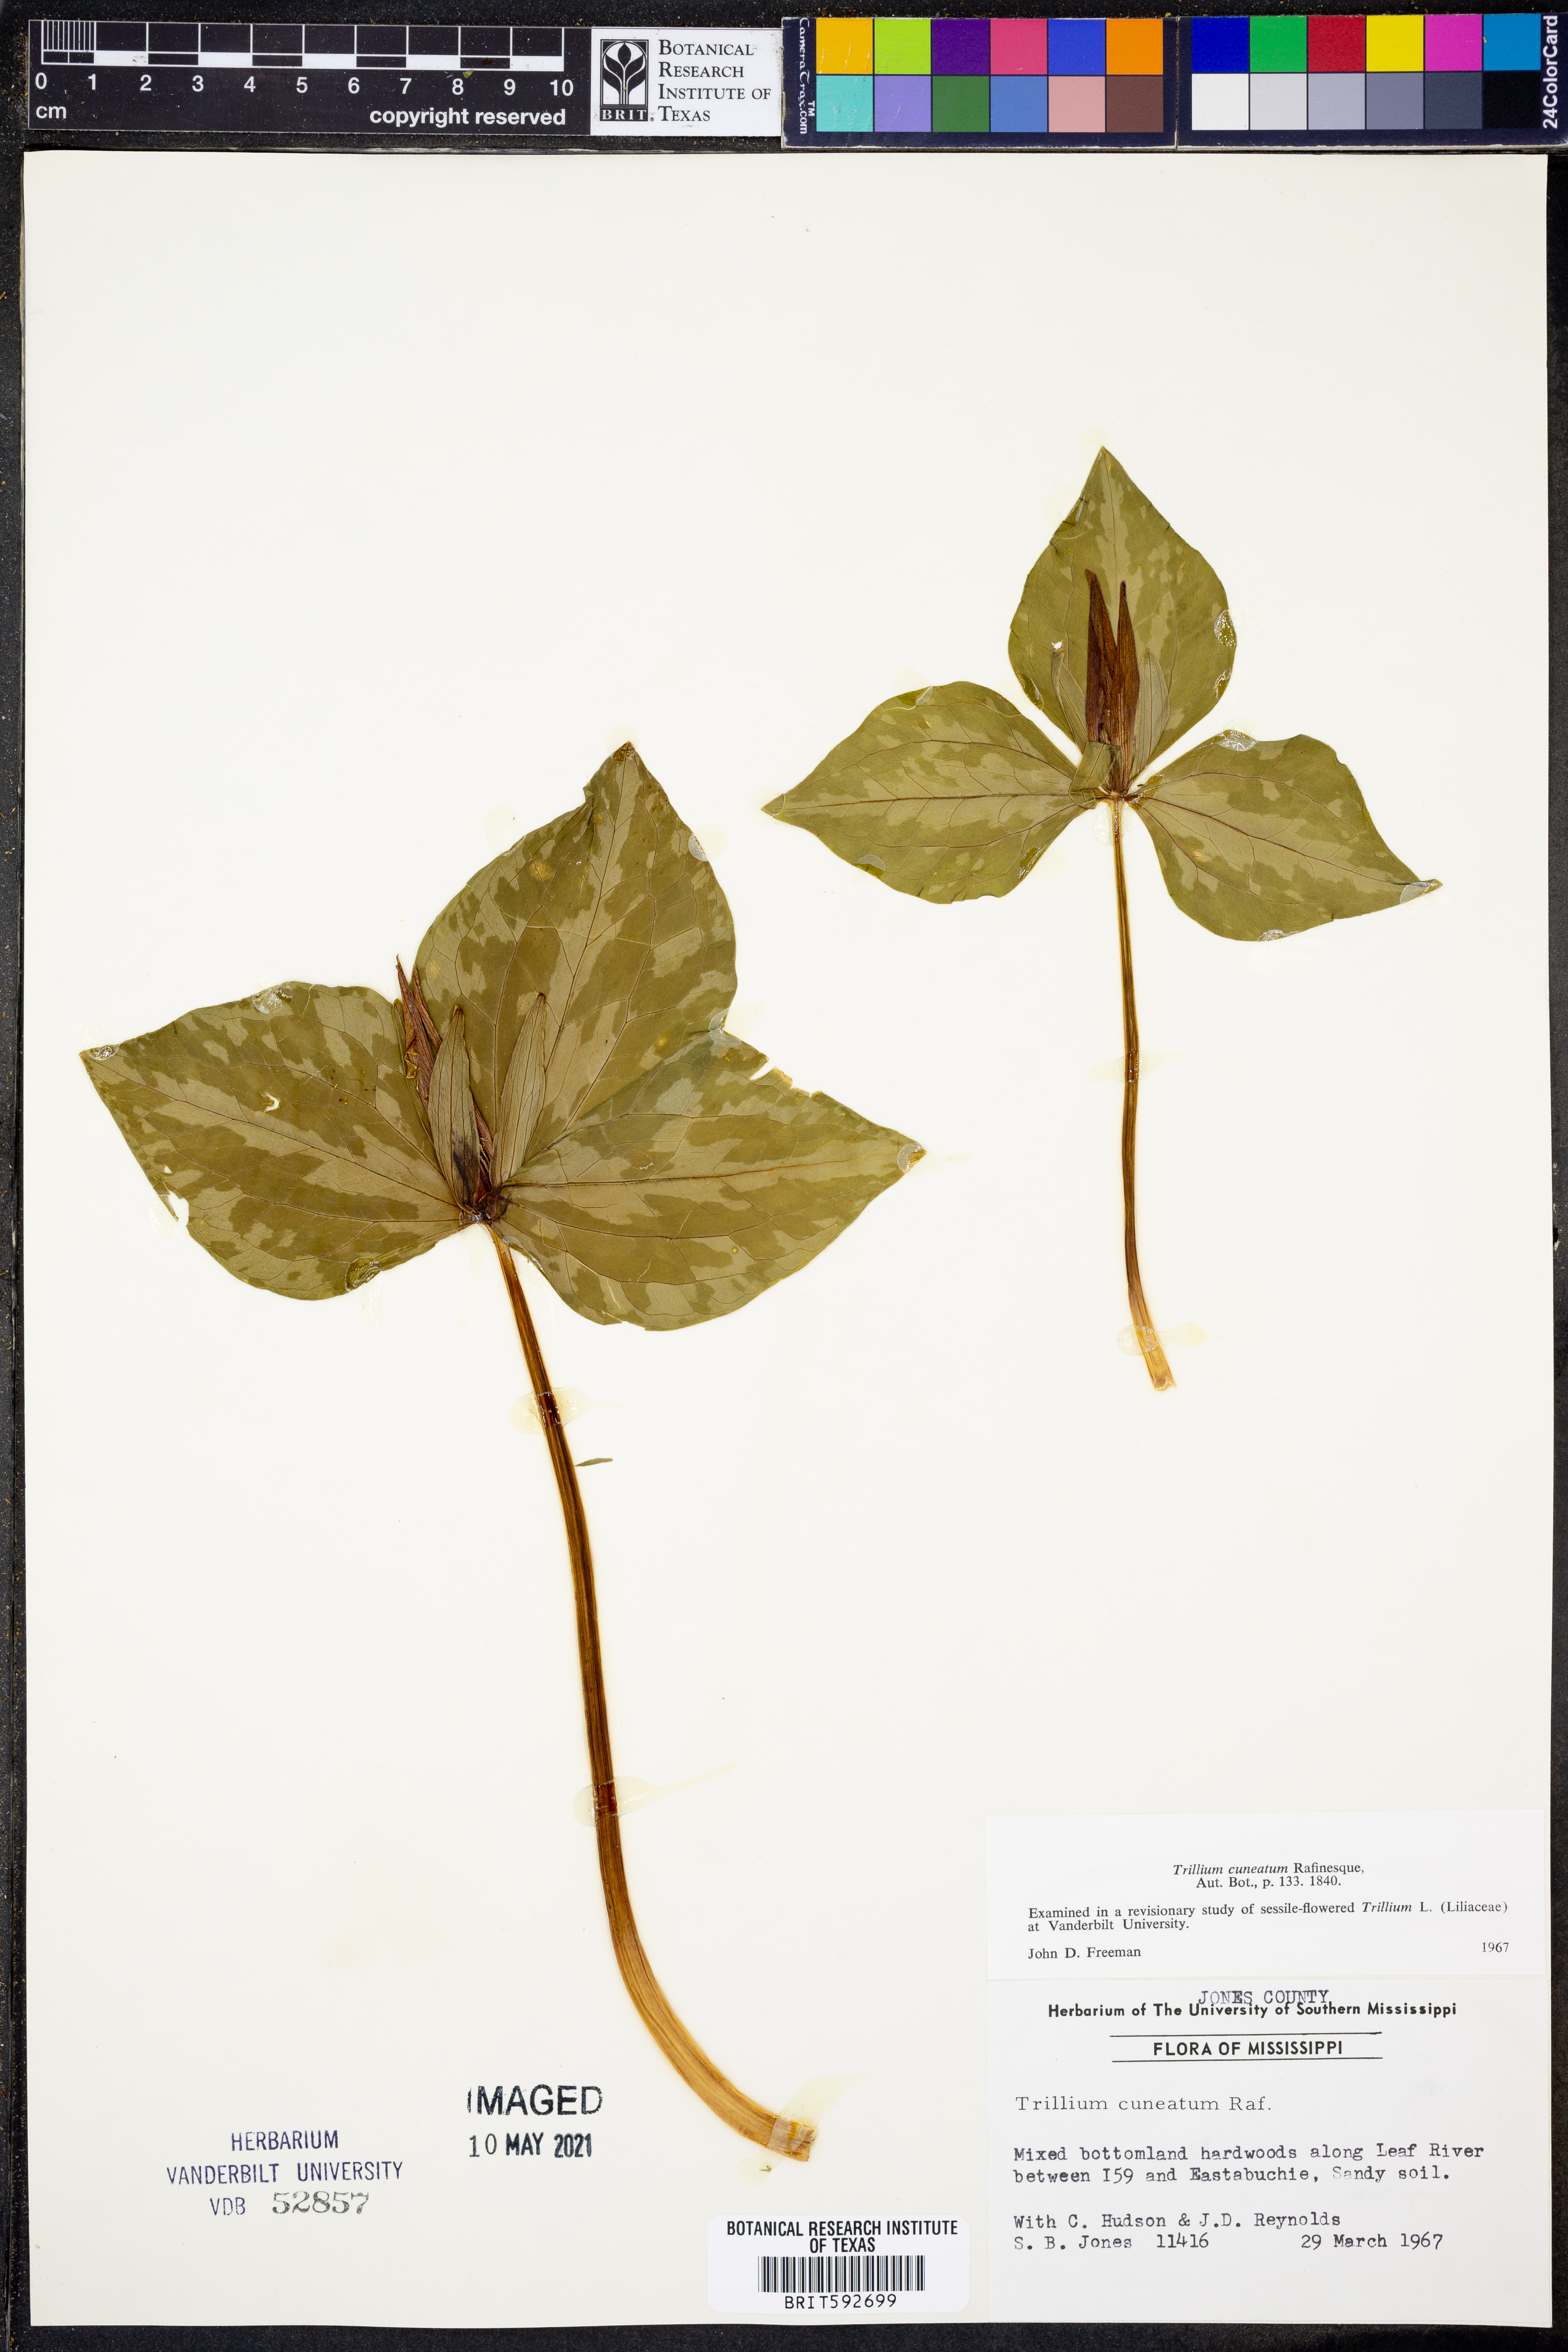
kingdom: Plantae
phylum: Tracheophyta
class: Liliopsida
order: Liliales
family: Melanthiaceae
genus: Trillium
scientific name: Trillium cuneatum
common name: Cuneate trillium
